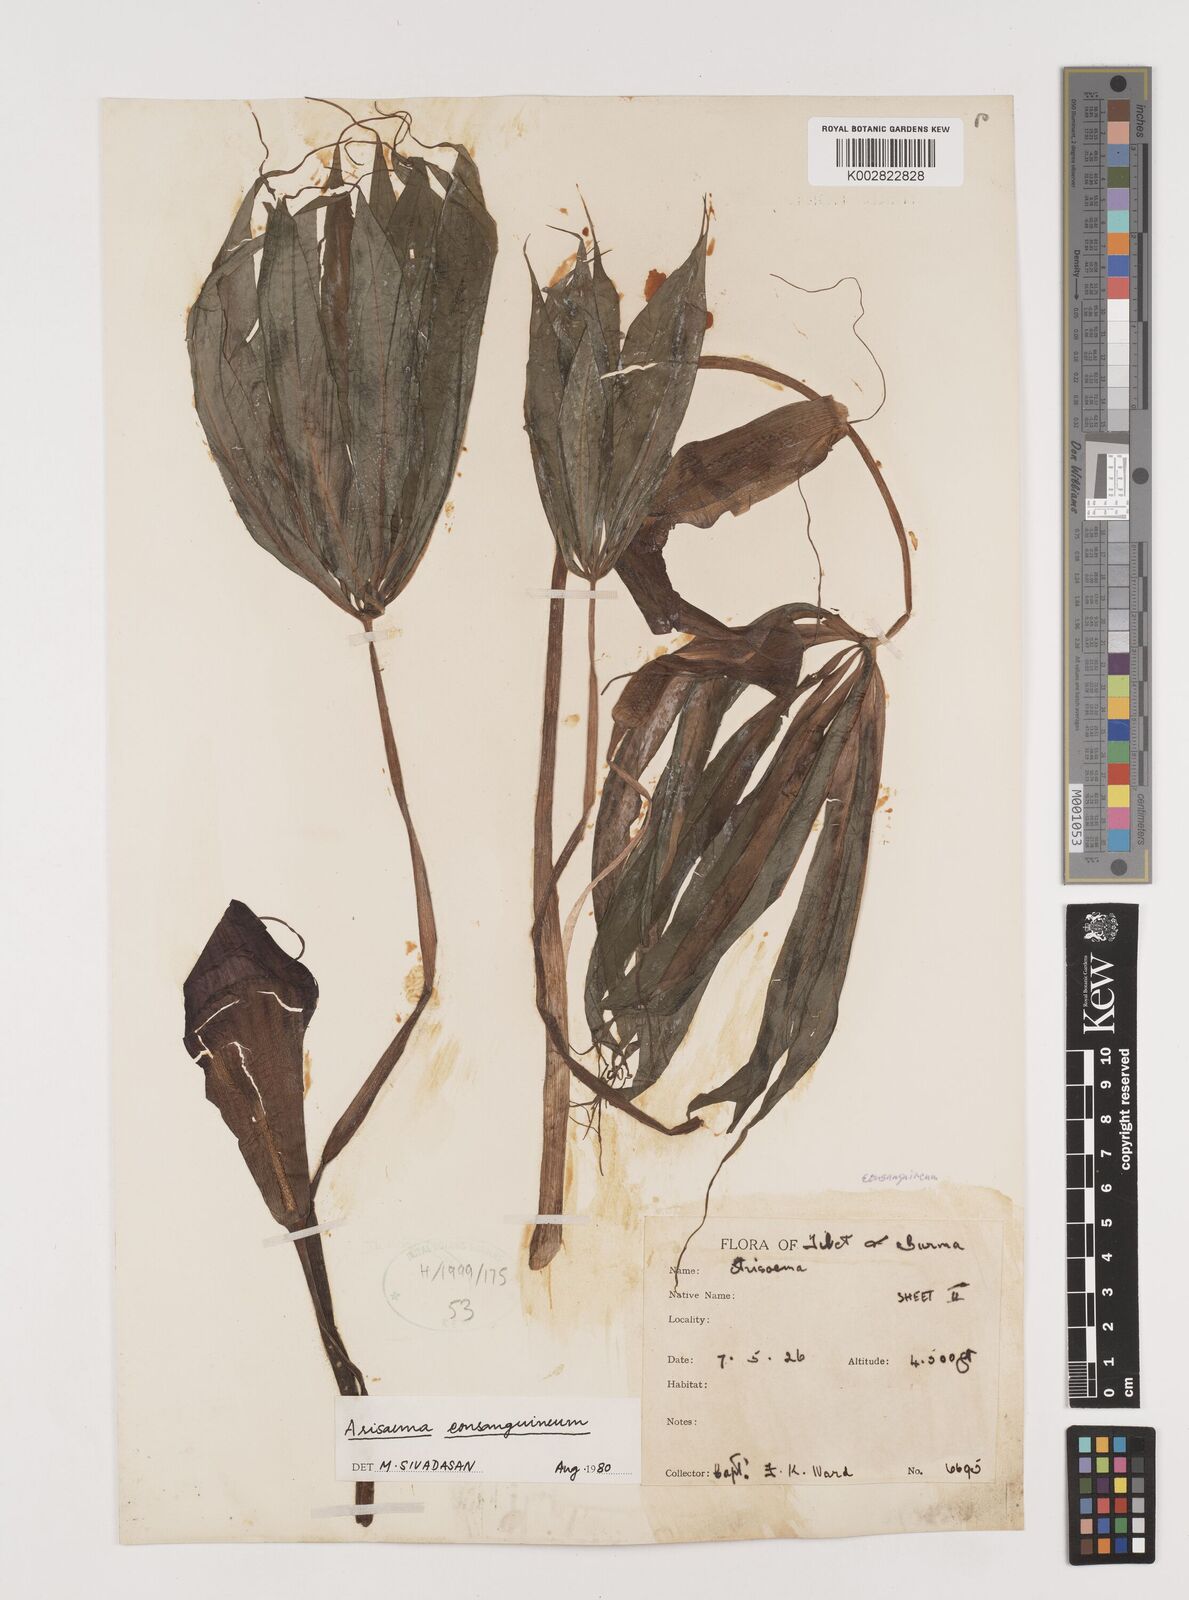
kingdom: Plantae
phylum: Tracheophyta
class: Liliopsida
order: Alismatales
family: Araceae
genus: Arisaema
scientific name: Arisaema consanguineum
